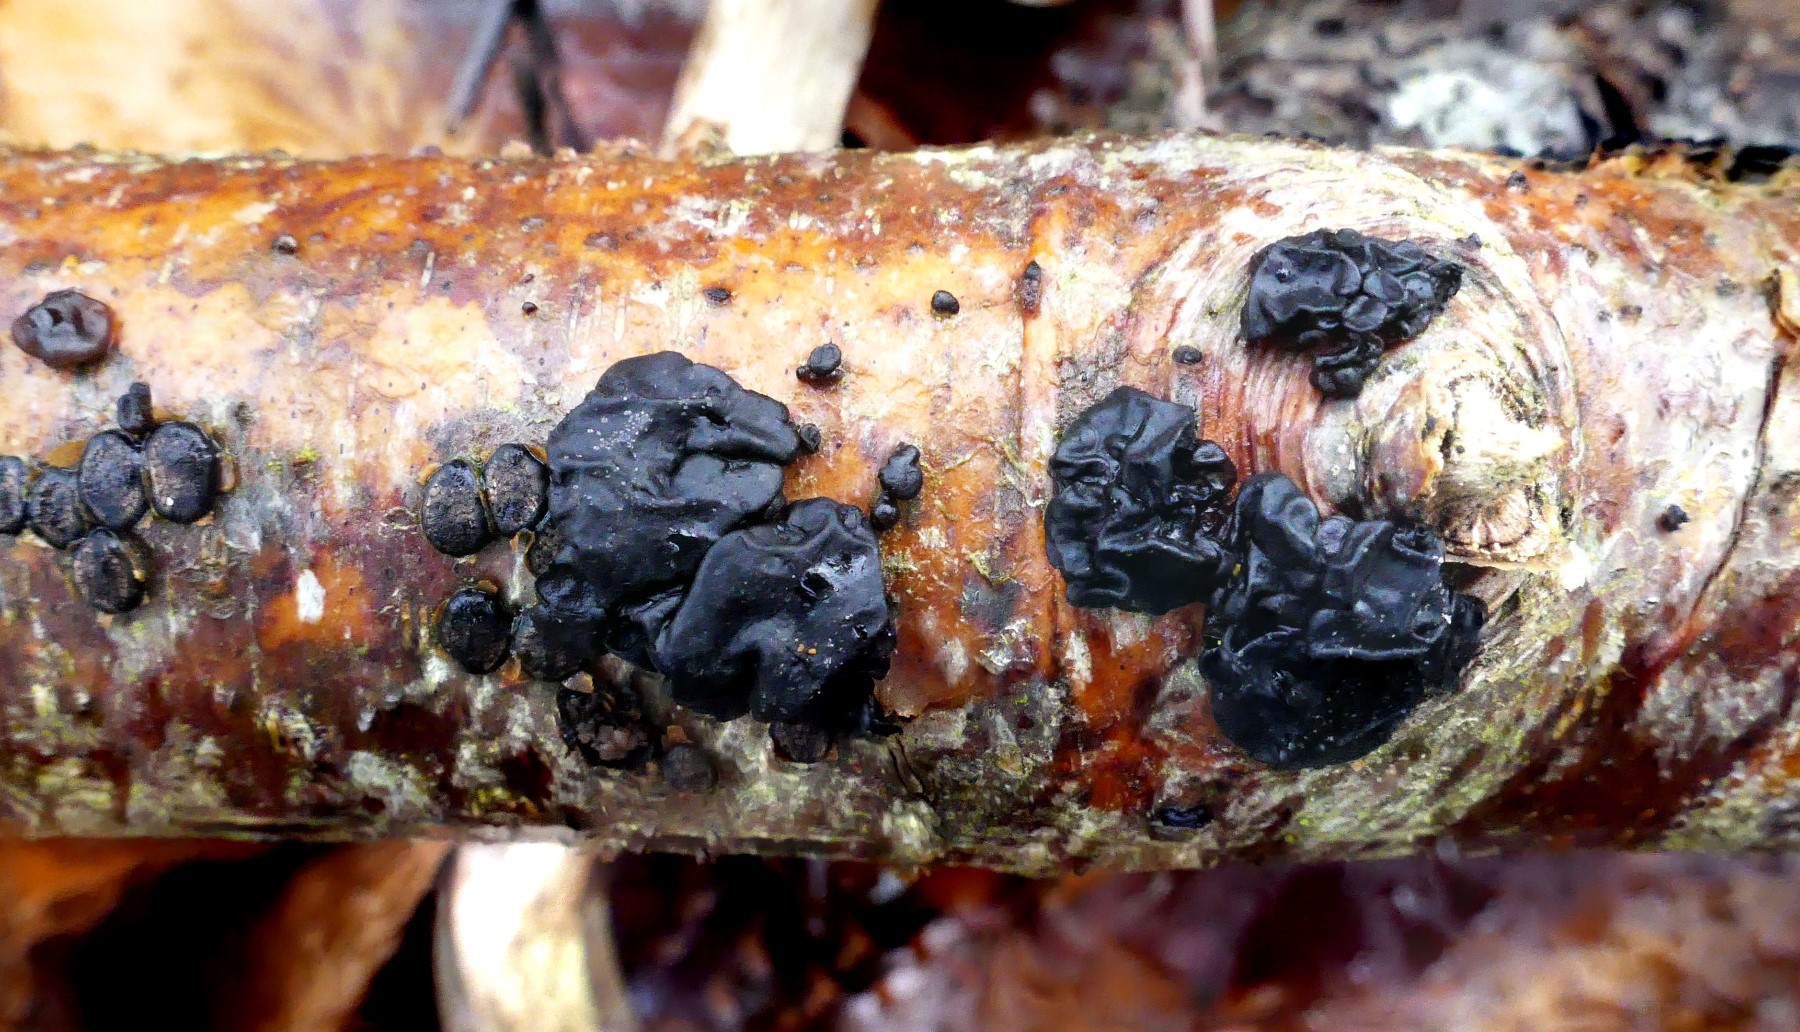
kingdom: Fungi
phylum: Basidiomycota
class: Agaricomycetes
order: Auriculariales
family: Auriculariaceae
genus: Exidia
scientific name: Exidia nigricans
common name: almindelig bævretop
